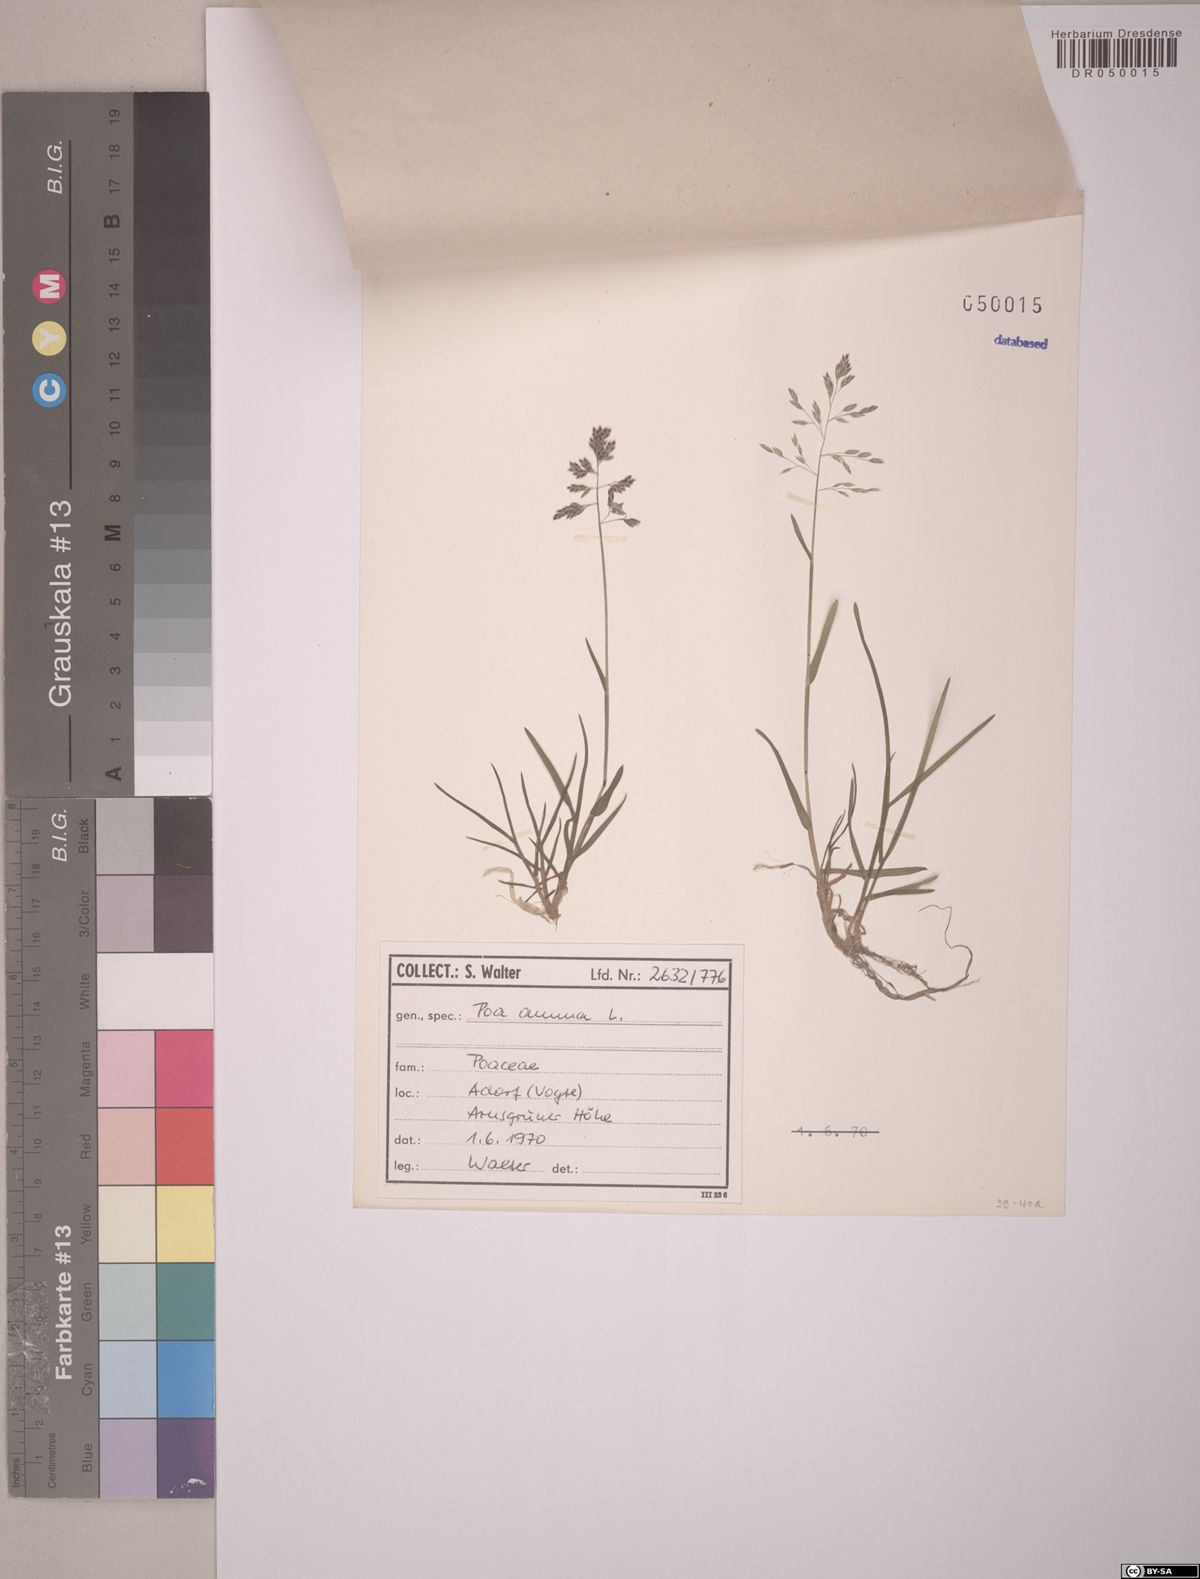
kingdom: Plantae
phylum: Tracheophyta
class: Liliopsida
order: Poales
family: Poaceae
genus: Poa
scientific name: Poa annua
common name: Annual bluegrass
